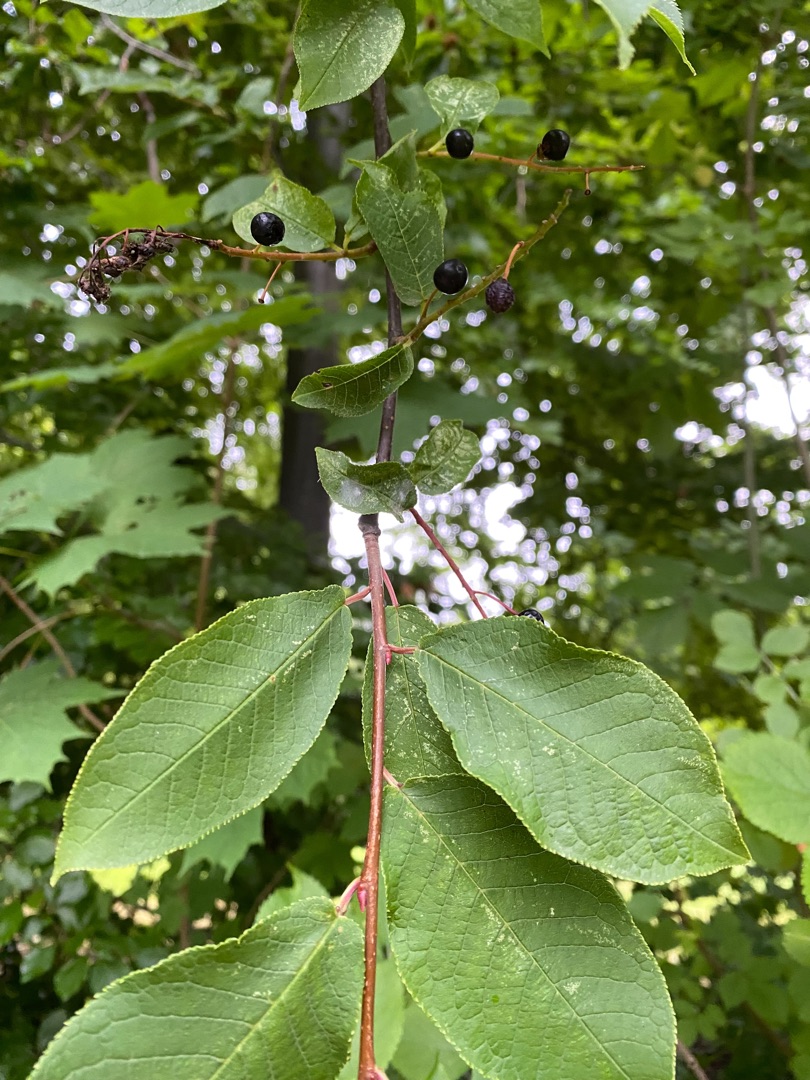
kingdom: Plantae
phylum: Tracheophyta
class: Magnoliopsida
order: Rosales
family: Rosaceae
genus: Prunus
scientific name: Prunus padus
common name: Almindelig hæg
